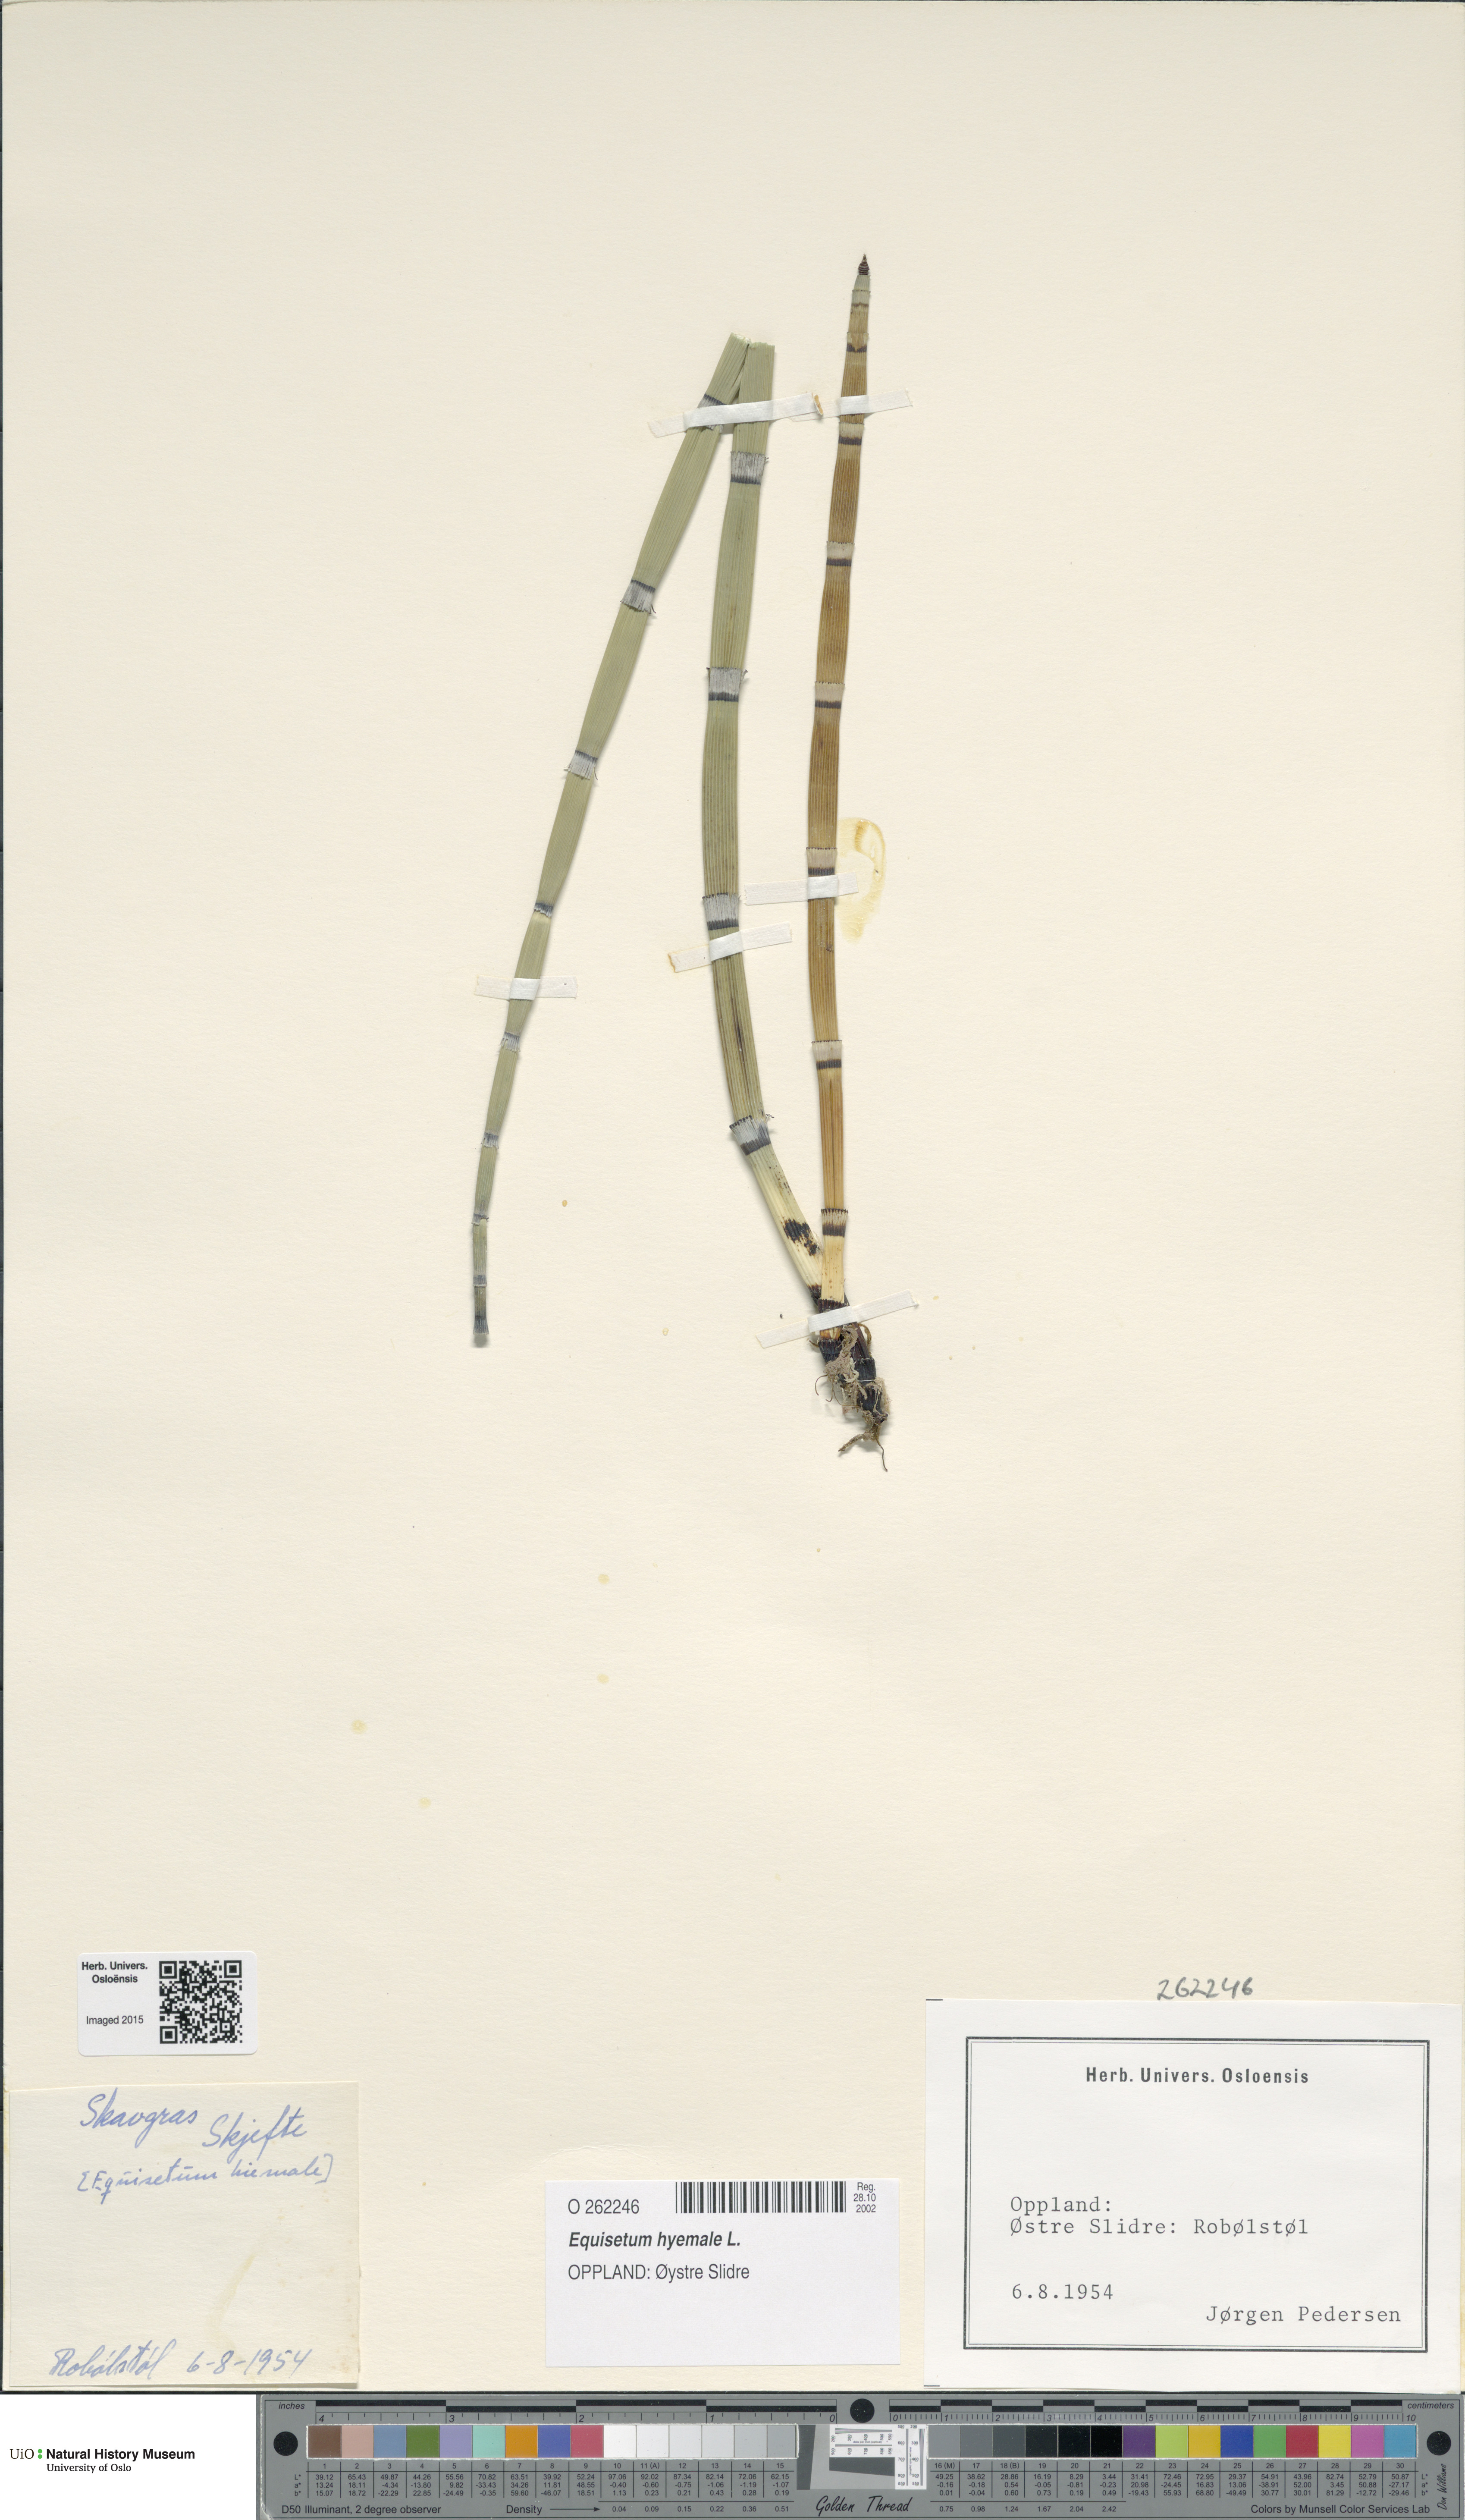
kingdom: Plantae
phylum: Tracheophyta
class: Polypodiopsida
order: Equisetales
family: Equisetaceae
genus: Equisetum
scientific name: Equisetum hyemale
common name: Rough horsetail
